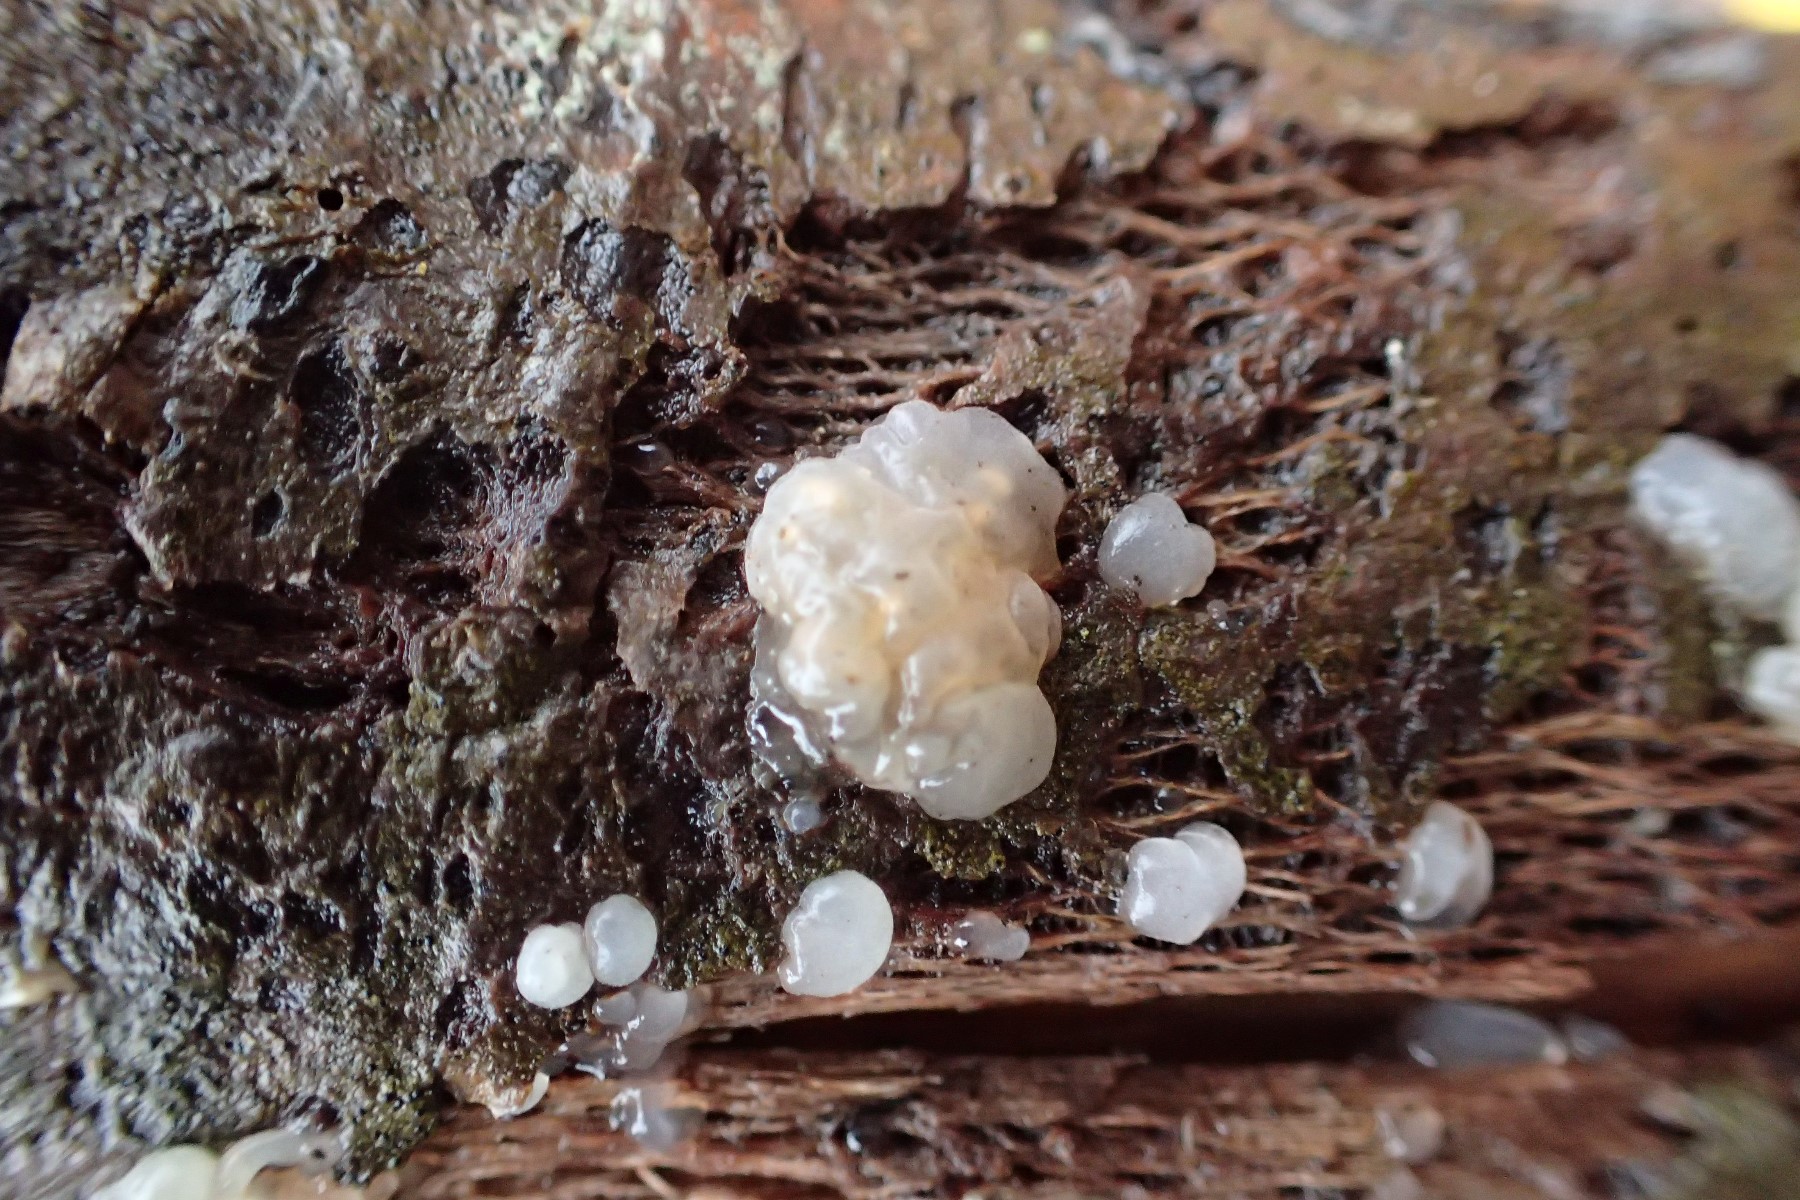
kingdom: Fungi
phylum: Basidiomycota
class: Agaricomycetes
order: Auriculariales
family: Hyaloriaceae
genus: Myxarium
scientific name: Myxarium nucleatum
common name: klar bævretop
